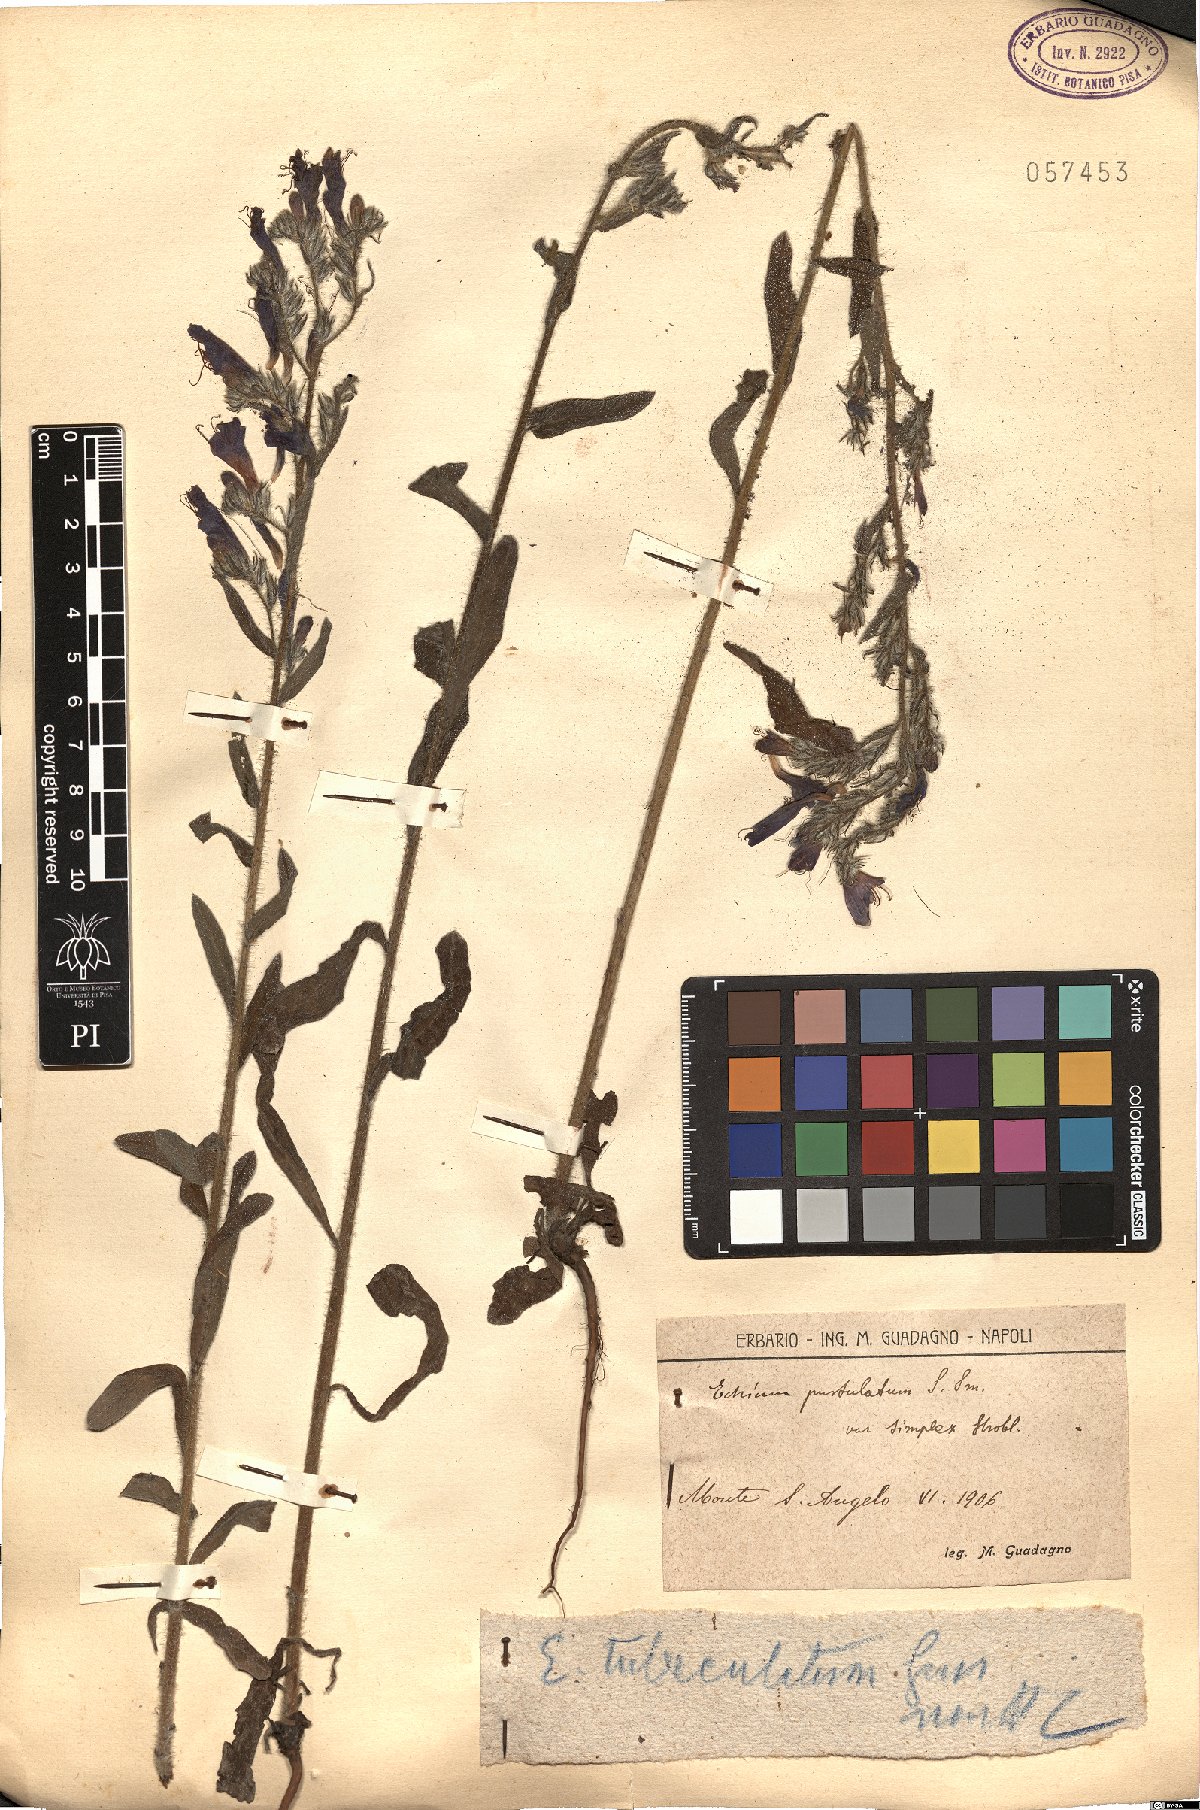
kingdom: Plantae
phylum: Tracheophyta
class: Magnoliopsida
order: Boraginales
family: Boraginaceae
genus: Echium
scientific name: Echium tuberculatum
